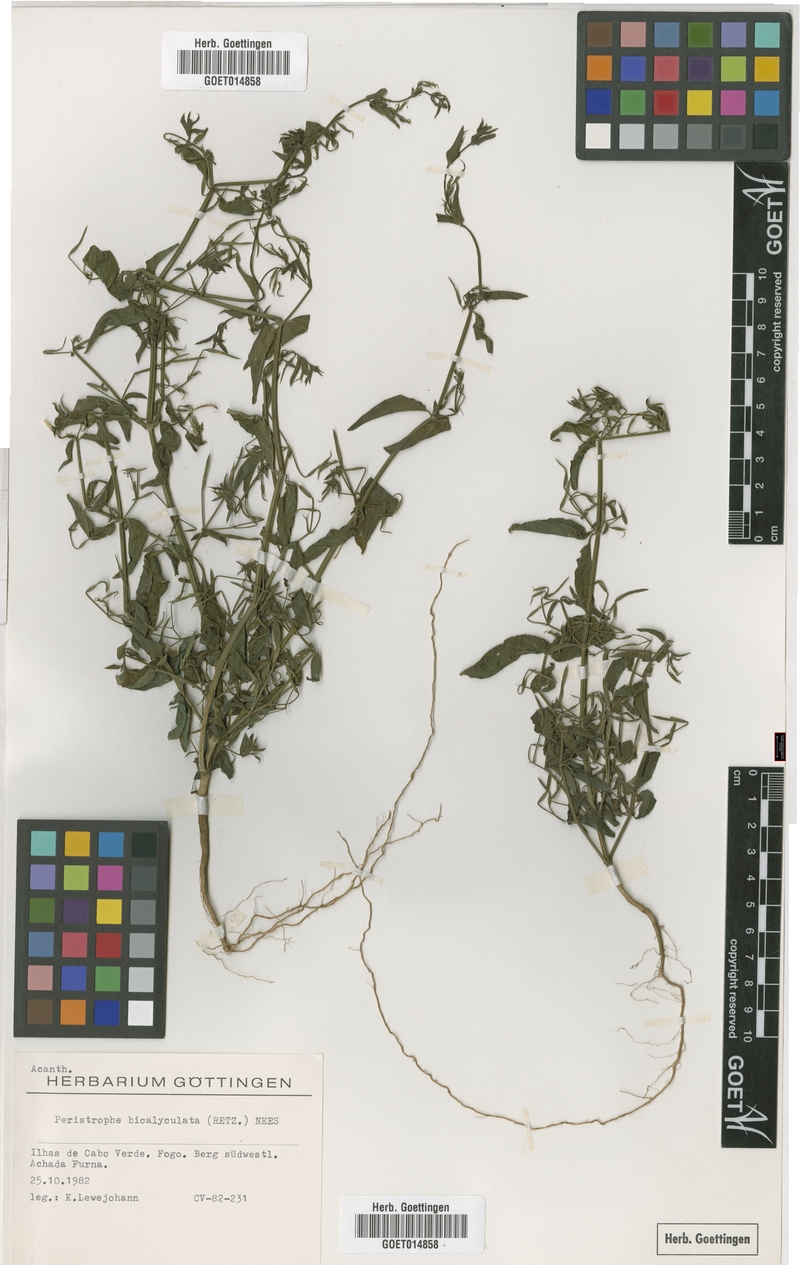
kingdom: Plantae
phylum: Tracheophyta
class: Magnoliopsida
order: Lamiales
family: Acanthaceae
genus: Dicliptera
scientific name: Dicliptera paniculata
